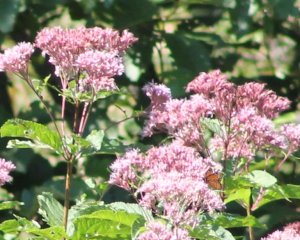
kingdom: Animalia
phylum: Arthropoda
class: Insecta
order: Lepidoptera
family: Nymphalidae
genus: Limenitis
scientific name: Limenitis archippus
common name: Viceroy
